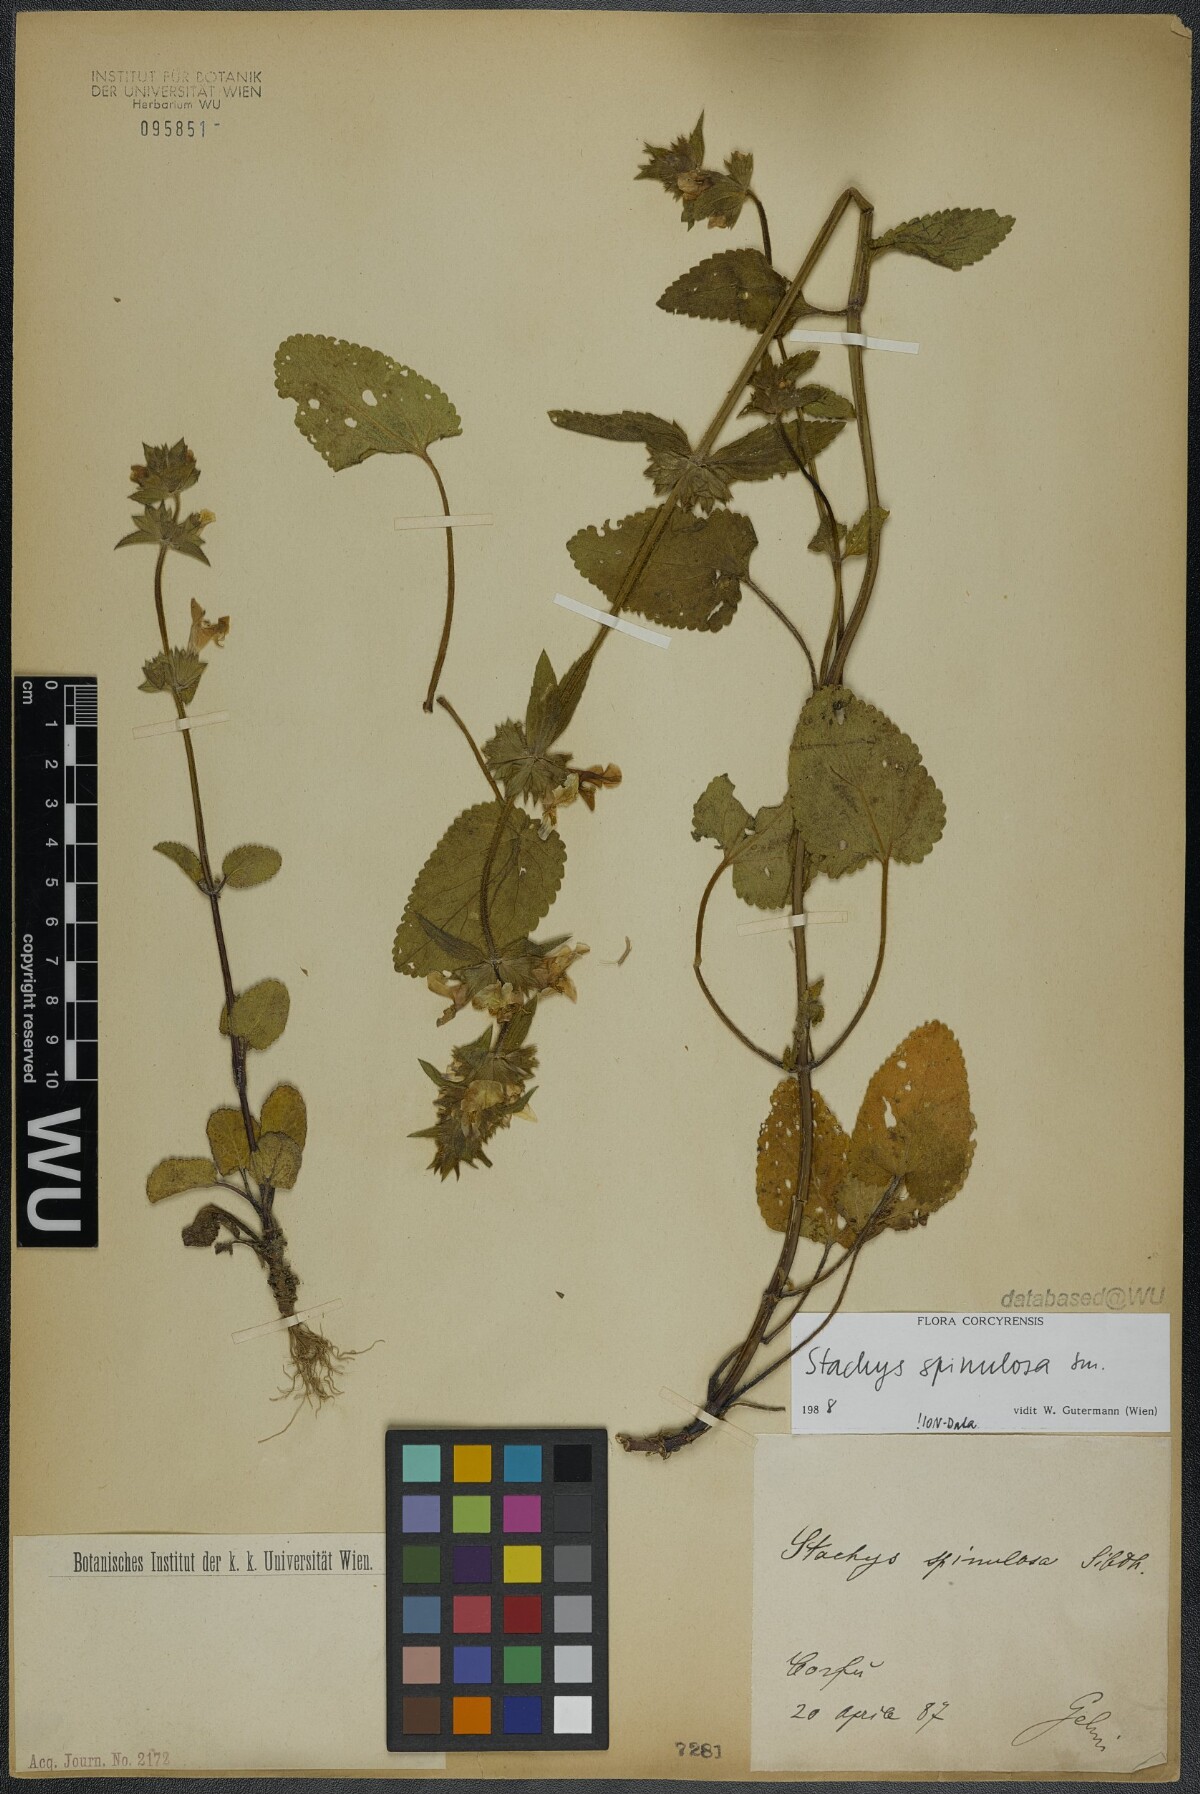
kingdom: Plantae
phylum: Tracheophyta
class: Magnoliopsida
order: Lamiales
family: Lamiaceae
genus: Stachys
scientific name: Stachys spinulosa
